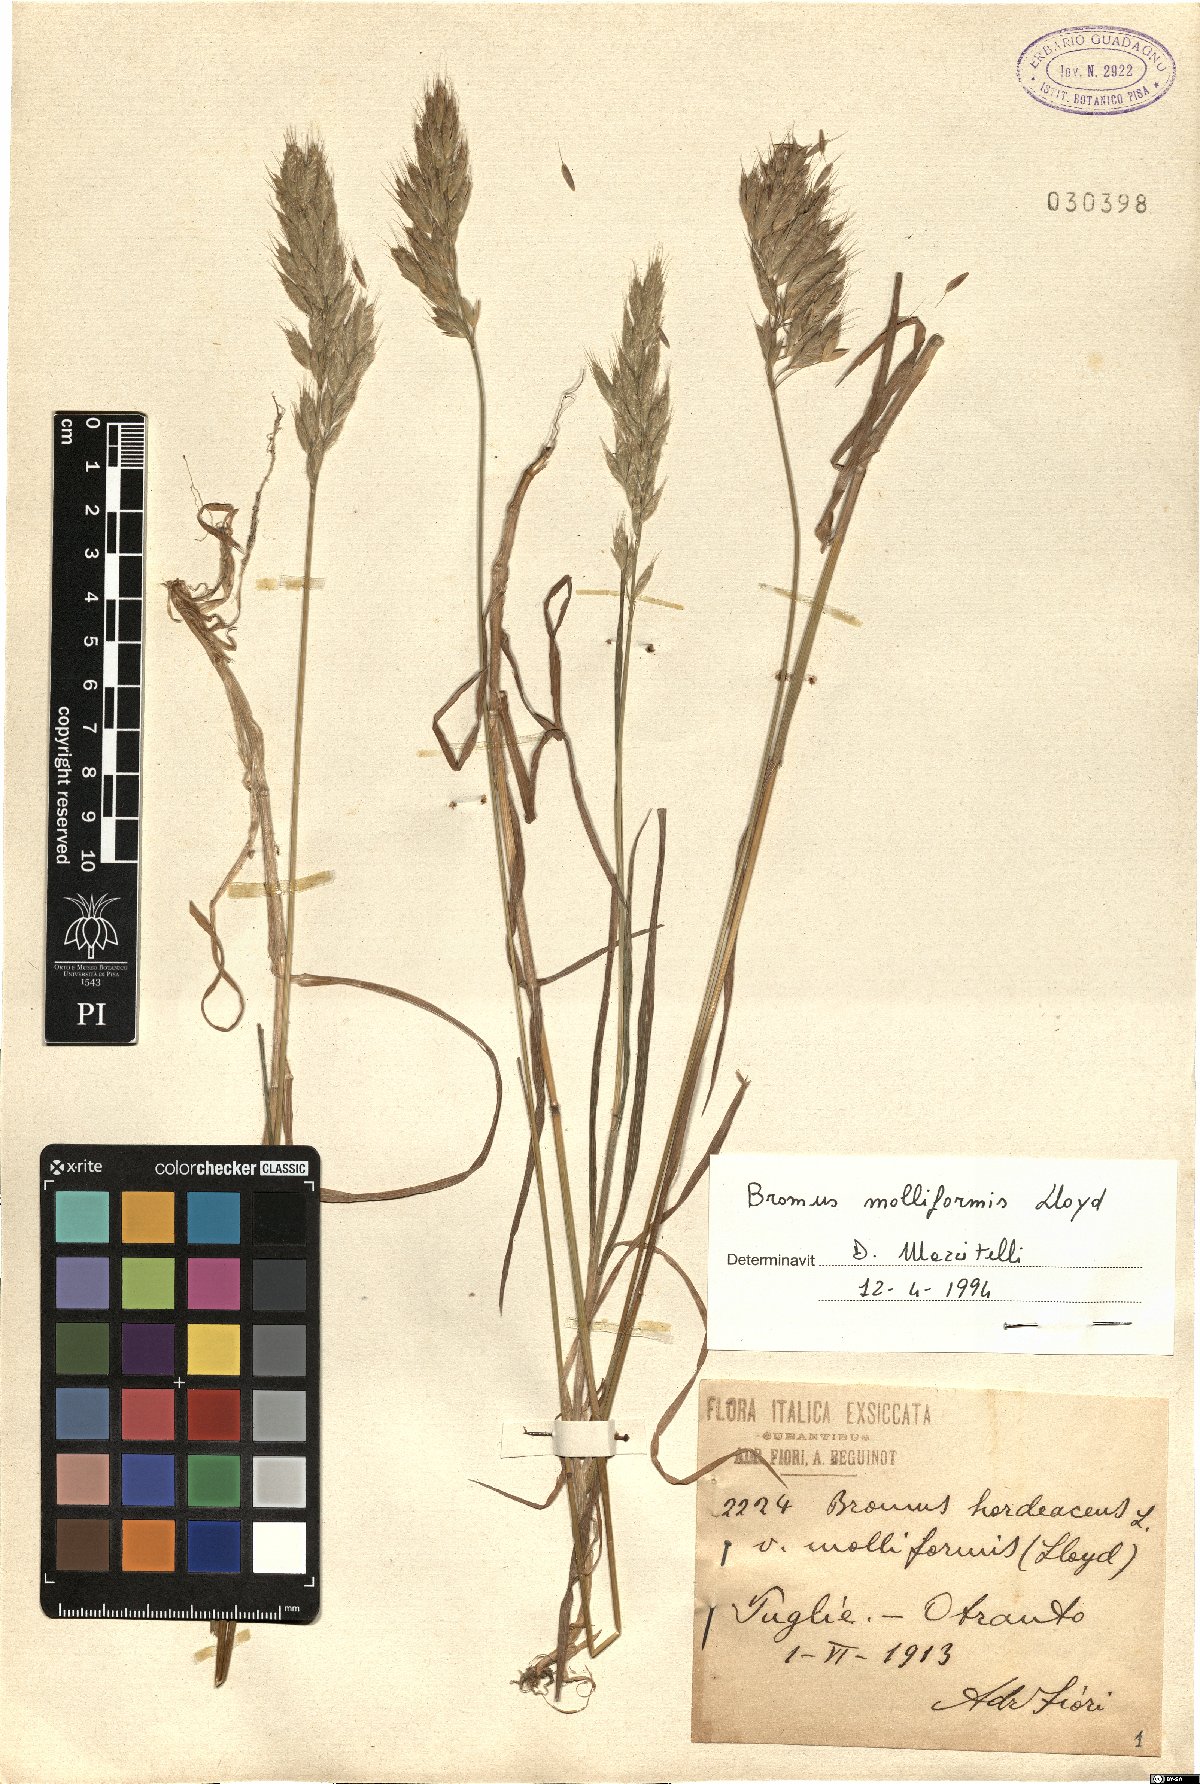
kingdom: Plantae
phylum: Tracheophyta
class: Liliopsida
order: Poales
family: Poaceae
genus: Bromus
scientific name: Bromus hordeaceus
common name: Soft brome
